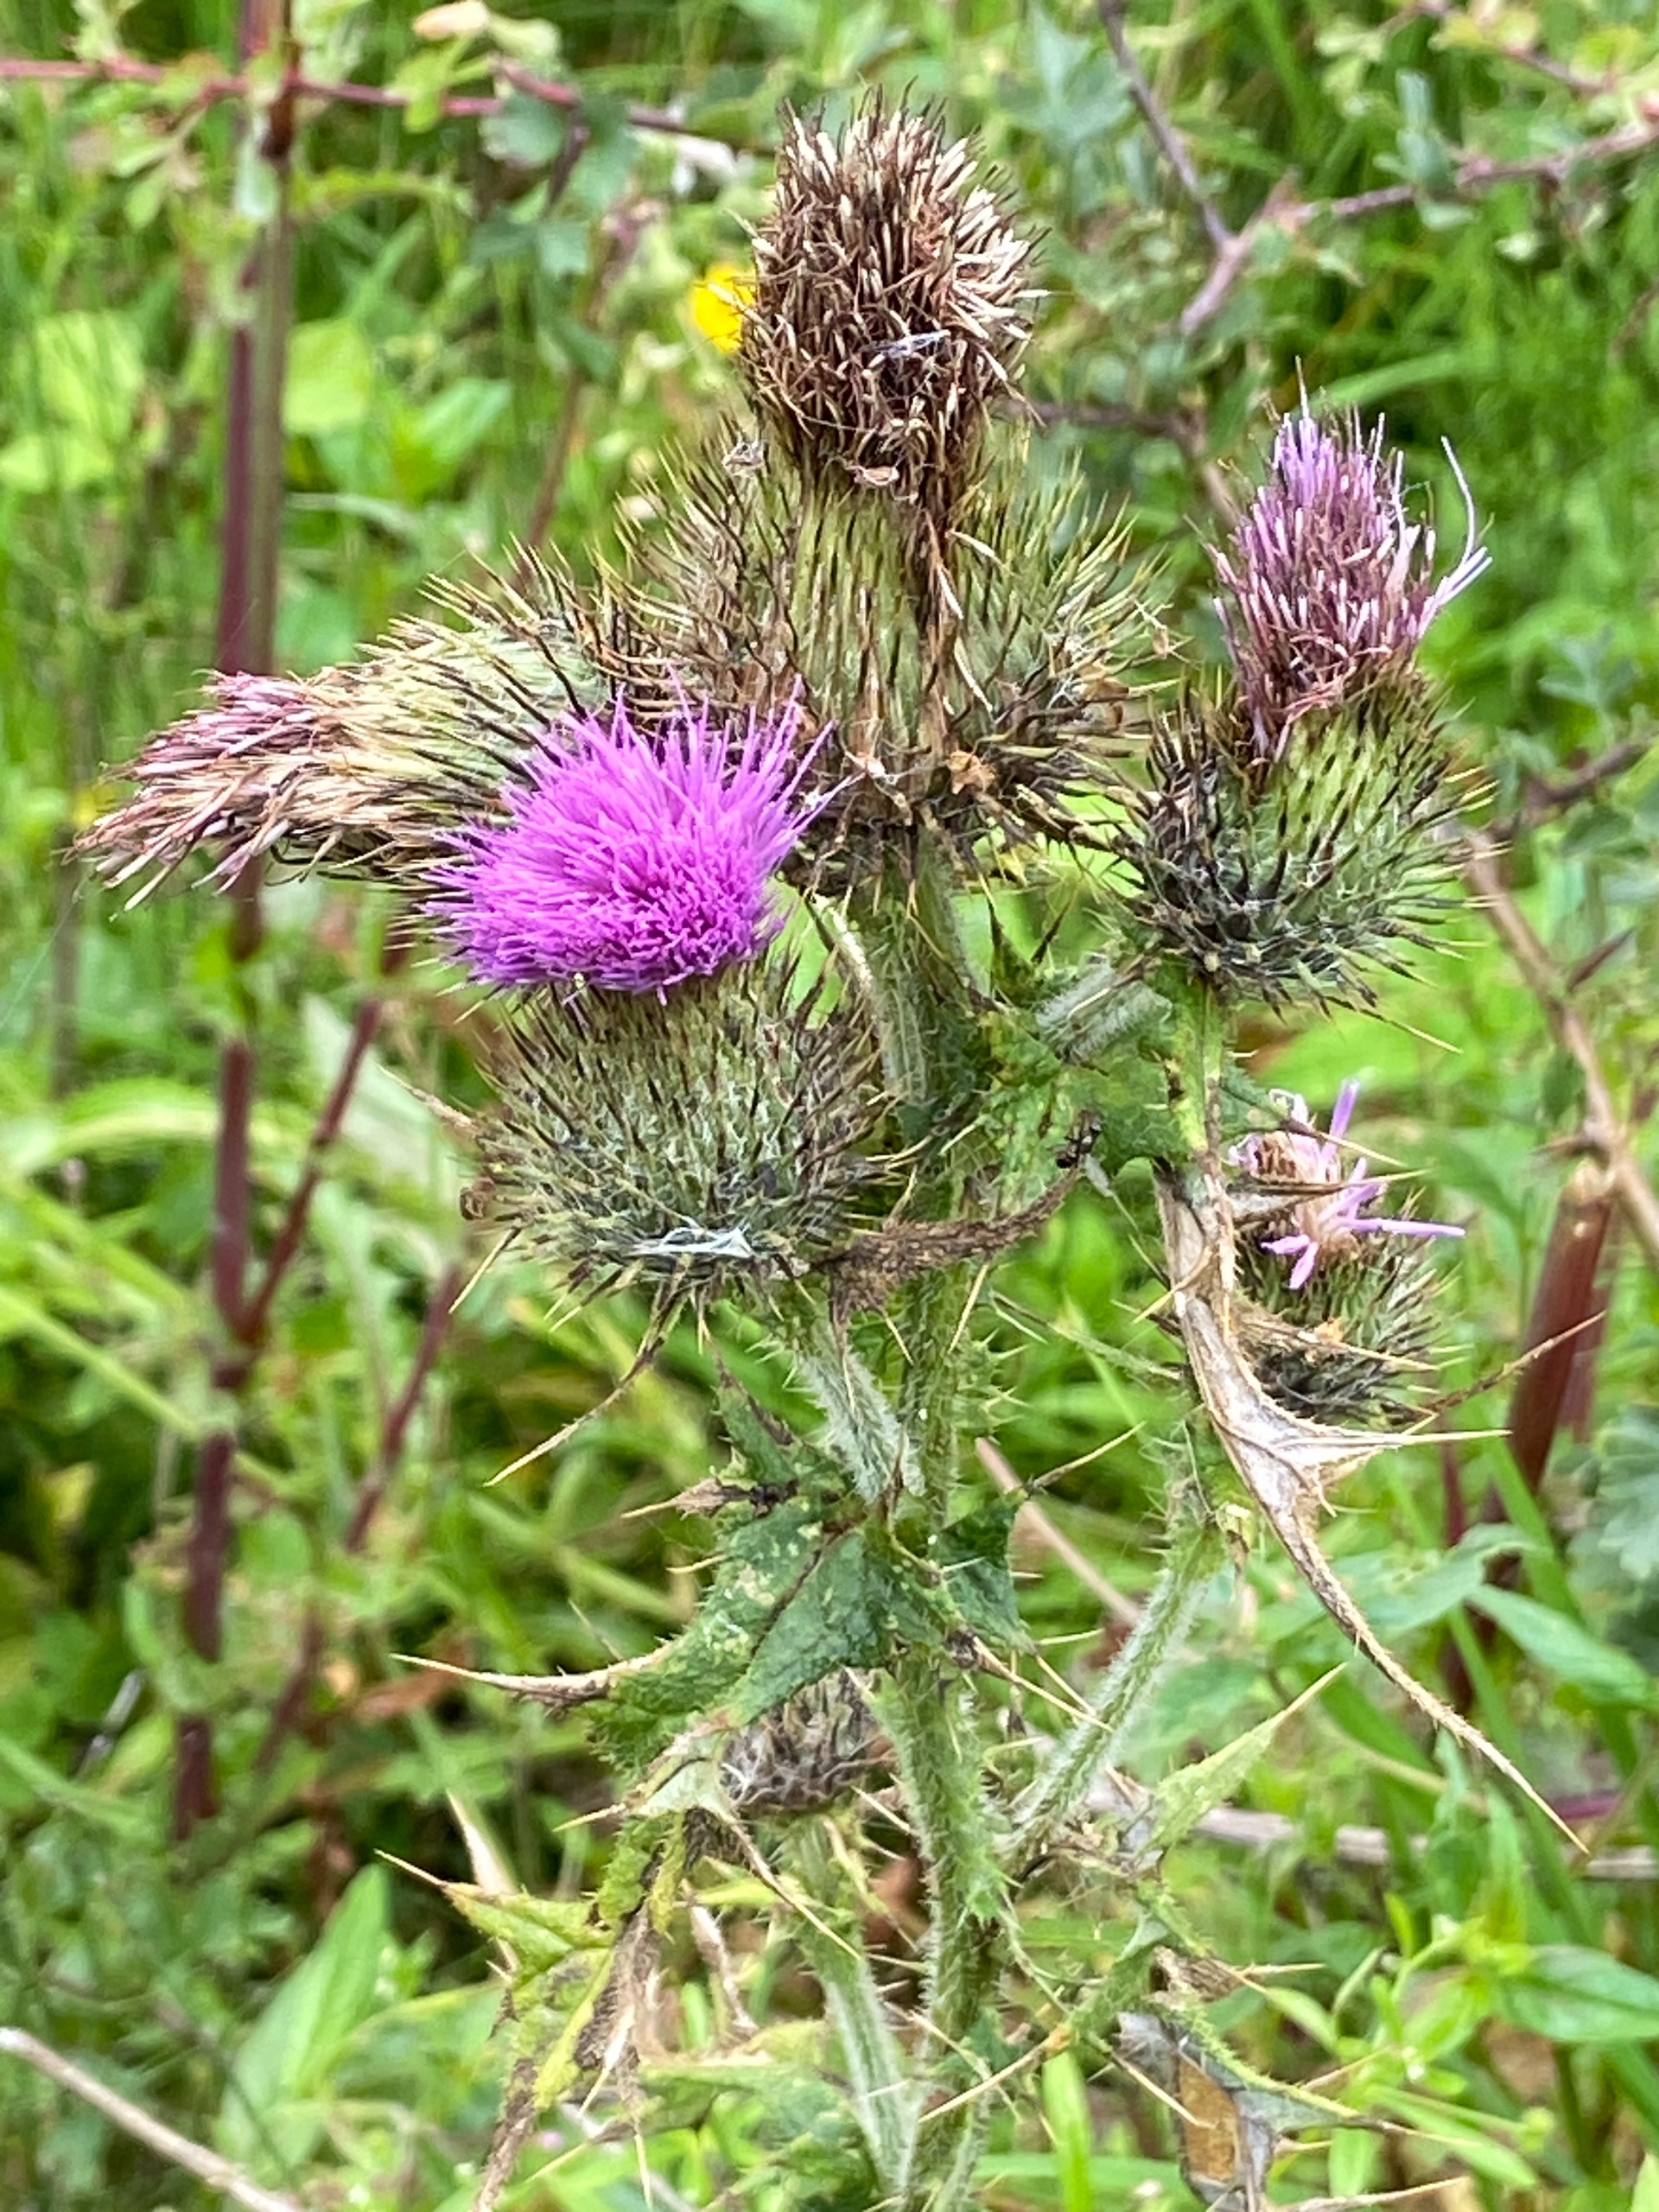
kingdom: Plantae
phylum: Tracheophyta
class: Magnoliopsida
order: Asterales
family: Asteraceae
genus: Cirsium
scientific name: Cirsium vulgare
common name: Horse-tidsel
